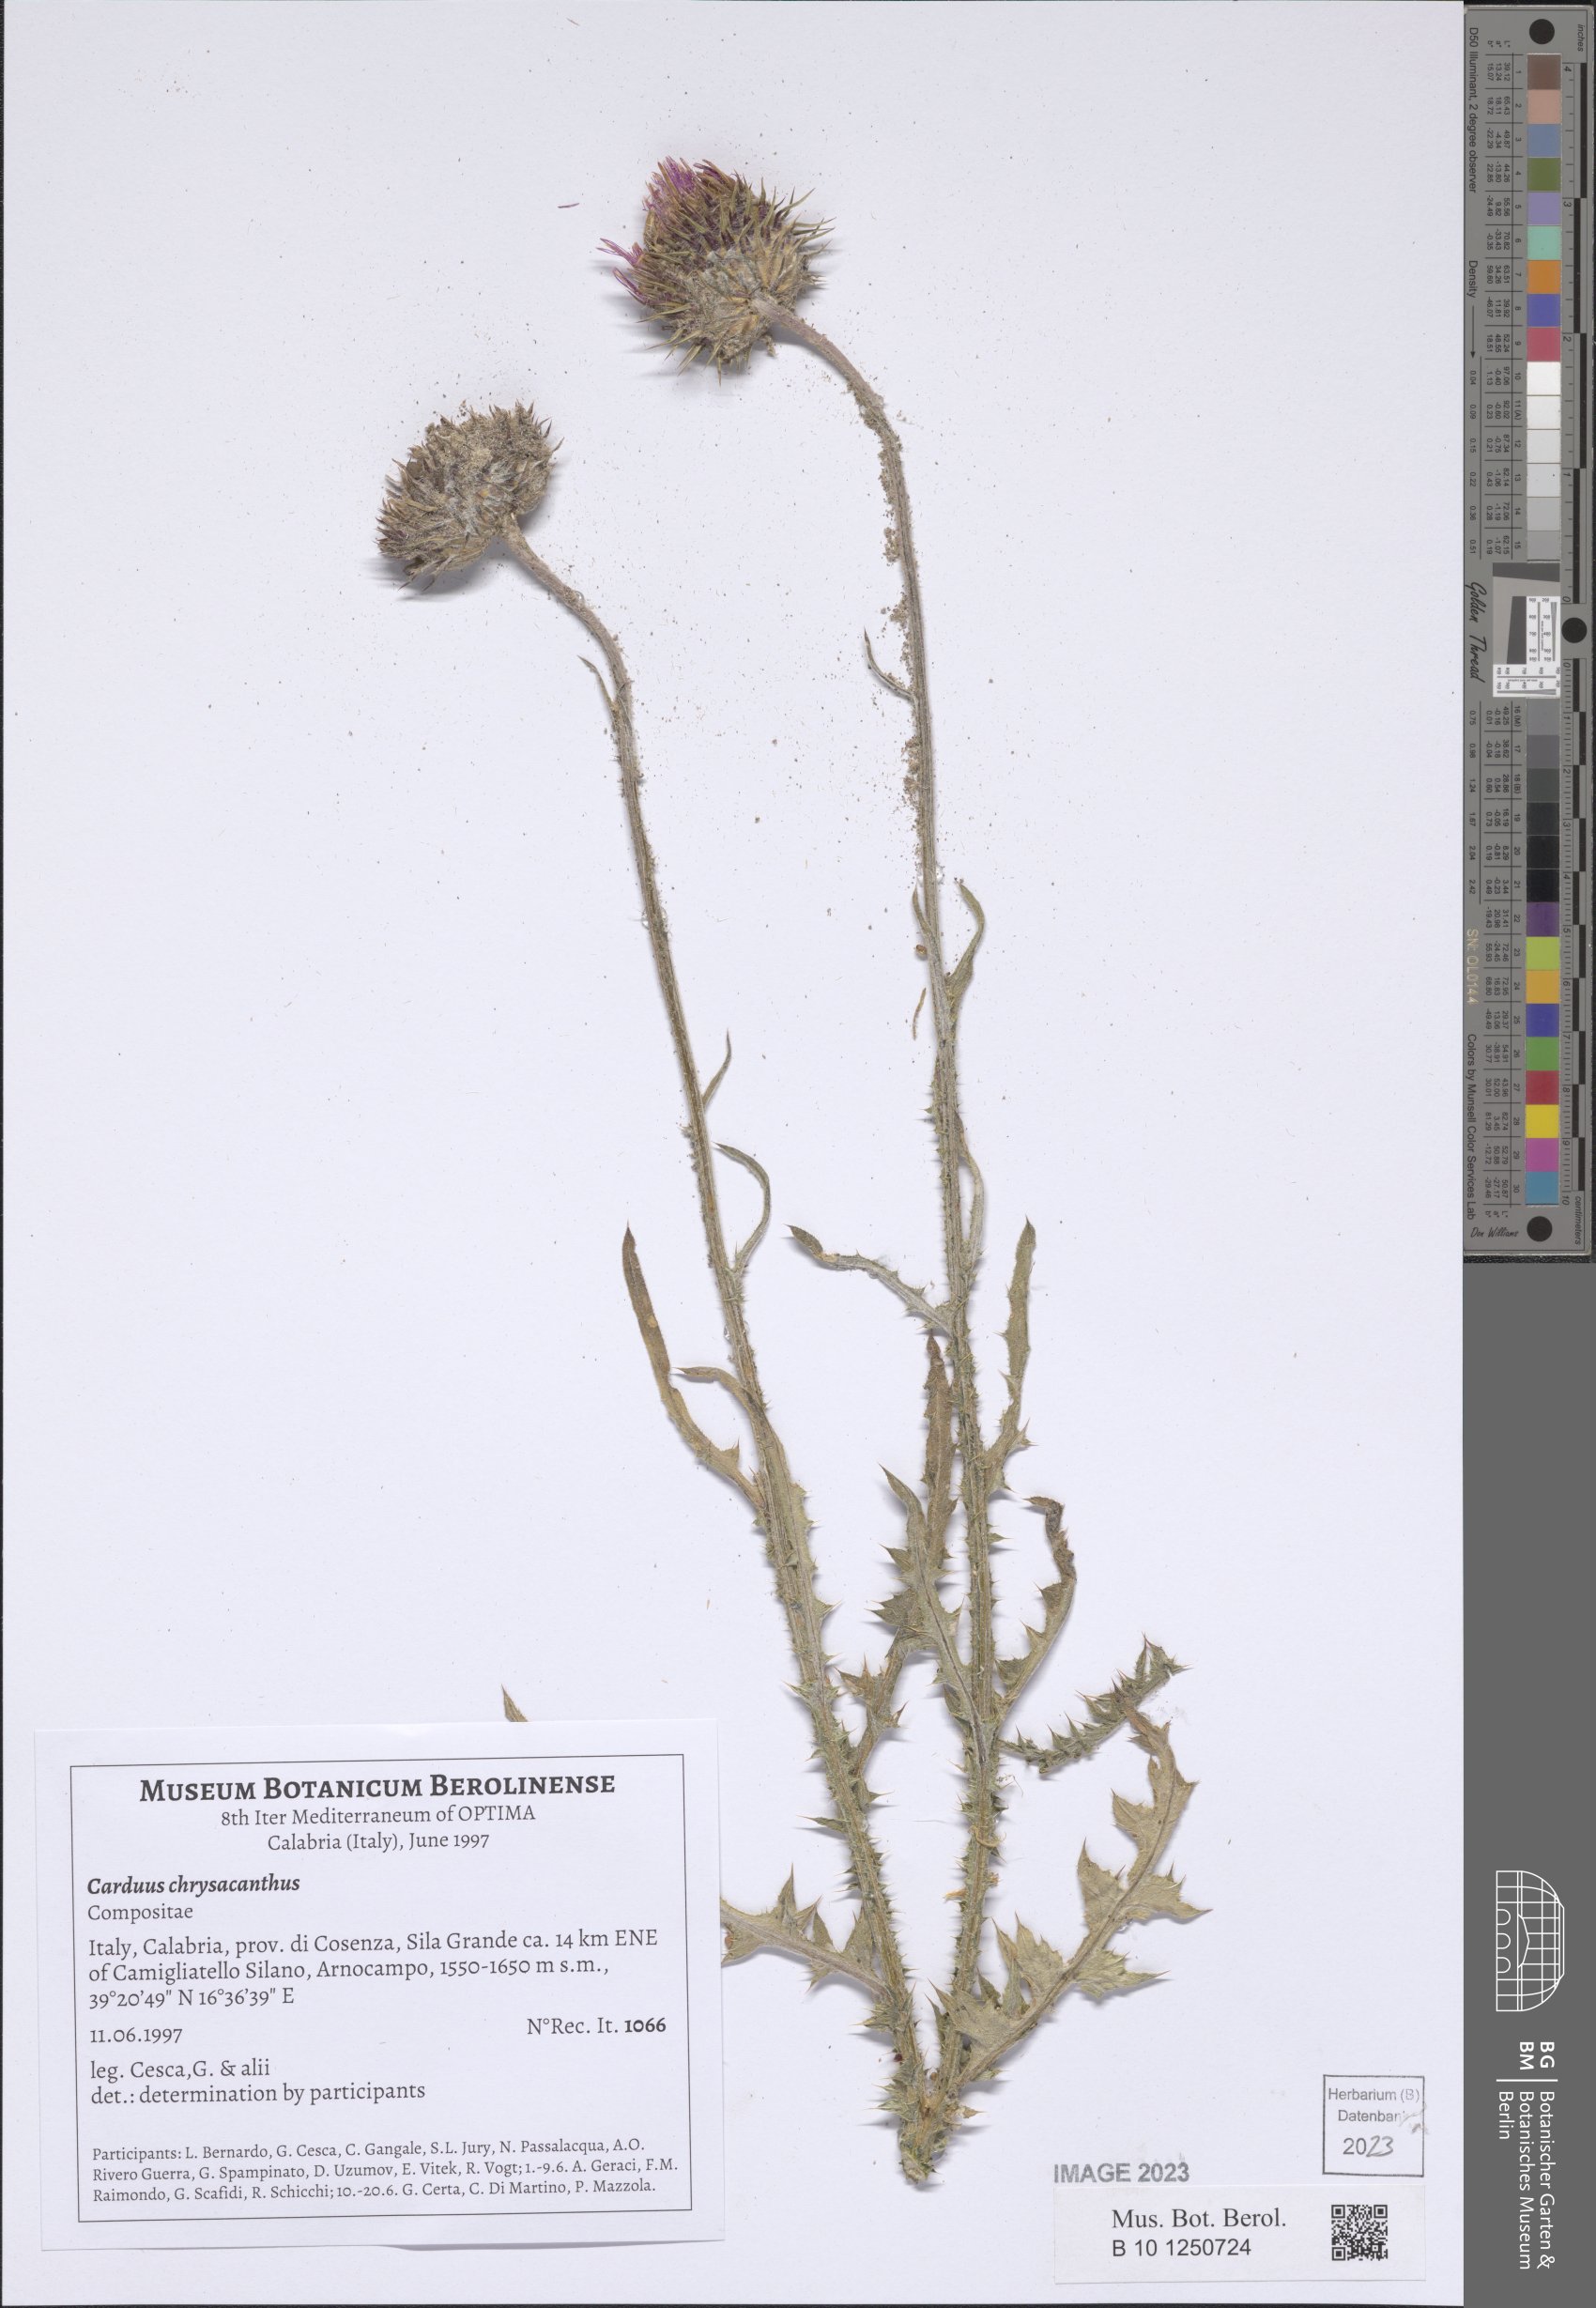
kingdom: Plantae
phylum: Tracheophyta
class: Magnoliopsida
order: Asterales
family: Asteraceae
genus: Carduus
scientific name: Carduus chrysacanthus
